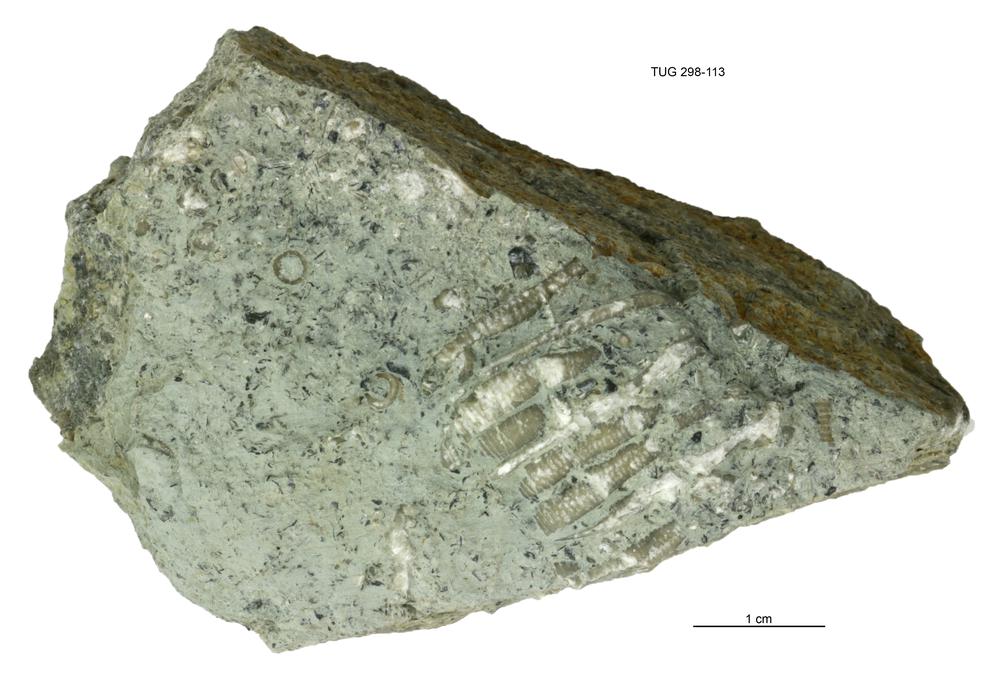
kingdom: Animalia
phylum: Echinodermata
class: Crinoidea
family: Eucalyptocrinitidae
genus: Eucalyptocrinites
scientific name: Eucalyptocrinites
